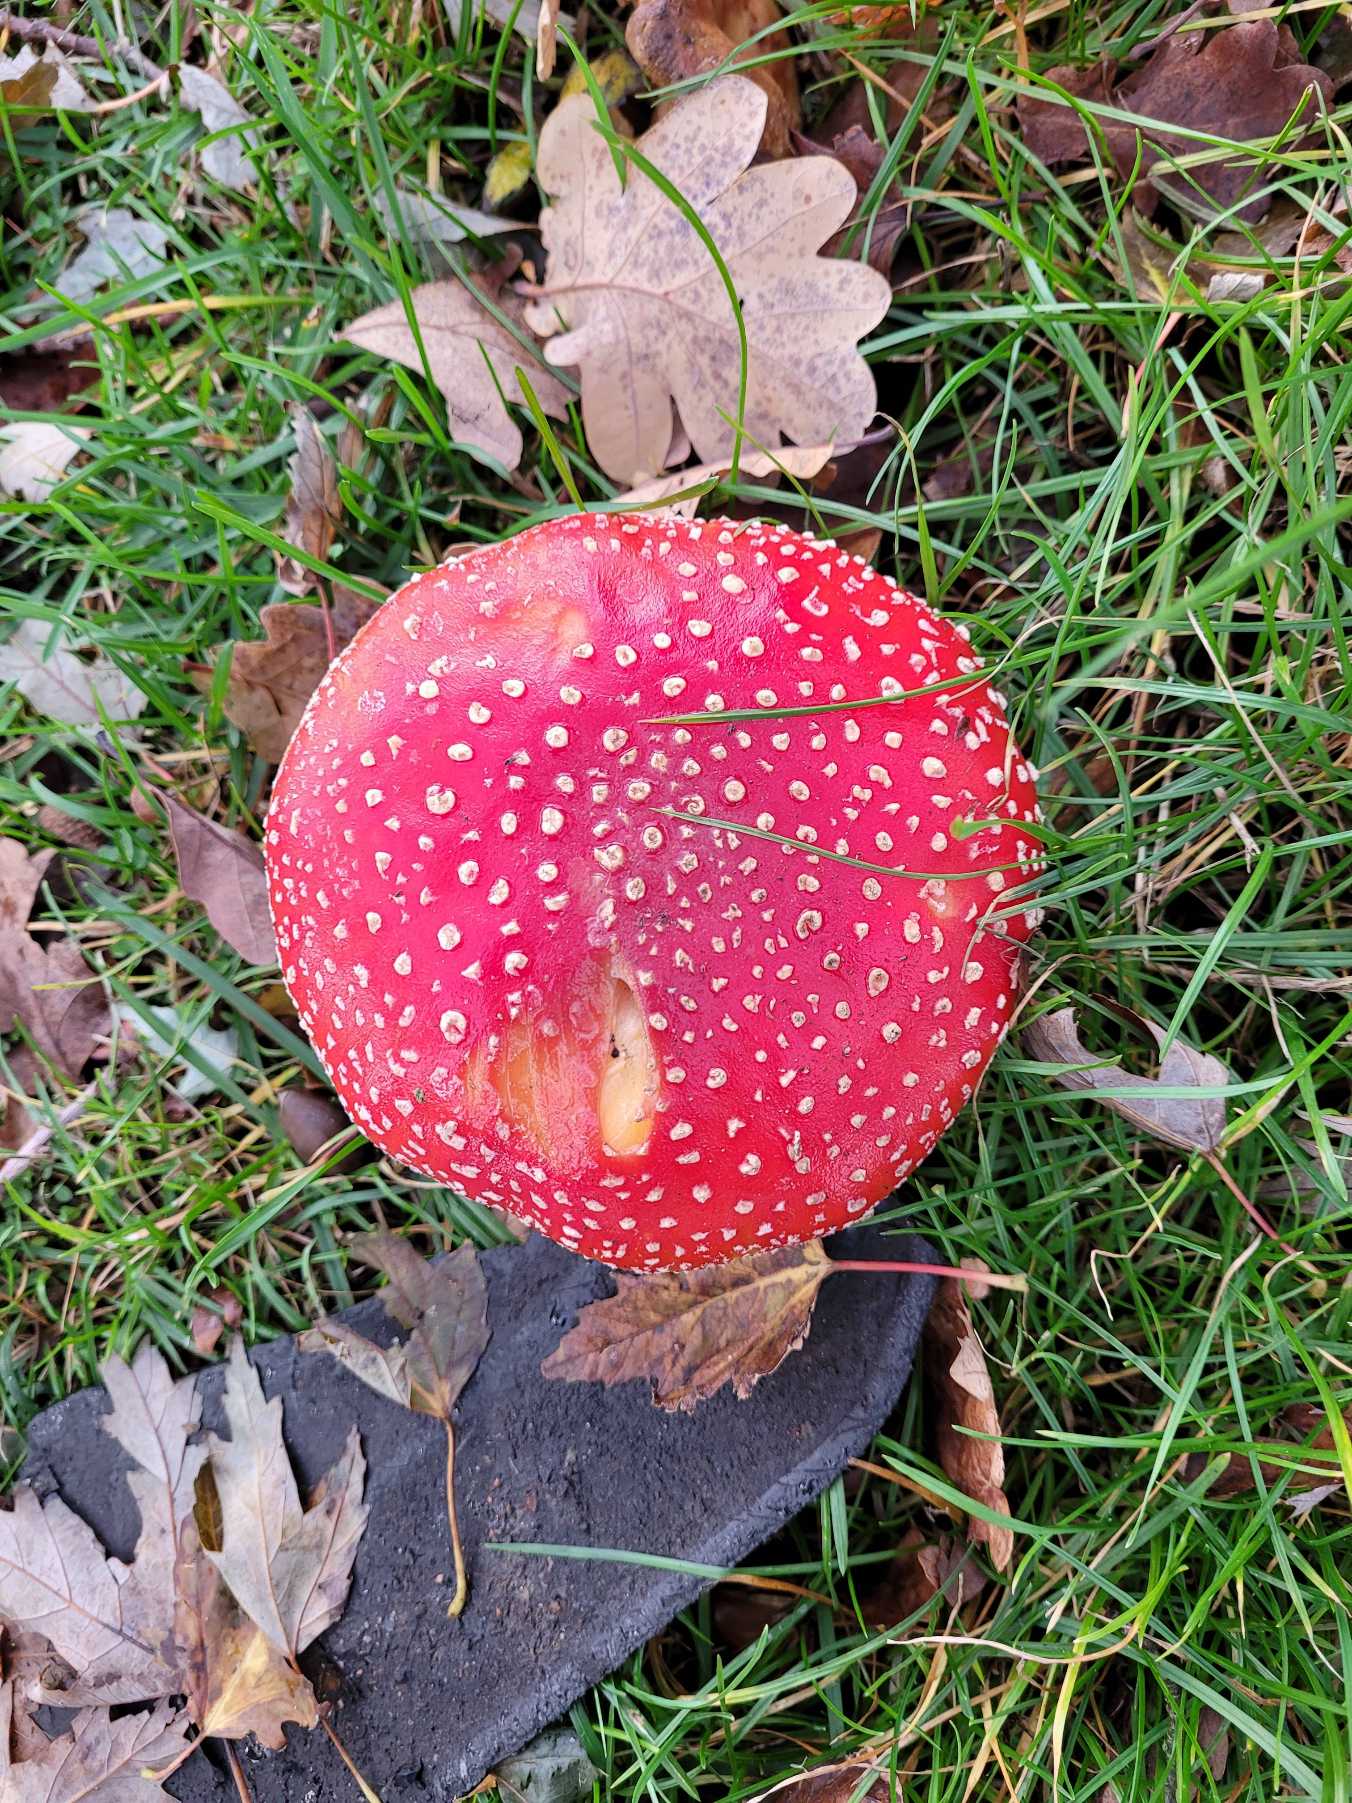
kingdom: Fungi
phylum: Basidiomycota
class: Agaricomycetes
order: Agaricales
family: Amanitaceae
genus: Amanita
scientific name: Amanita muscaria
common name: Rød fluesvamp
